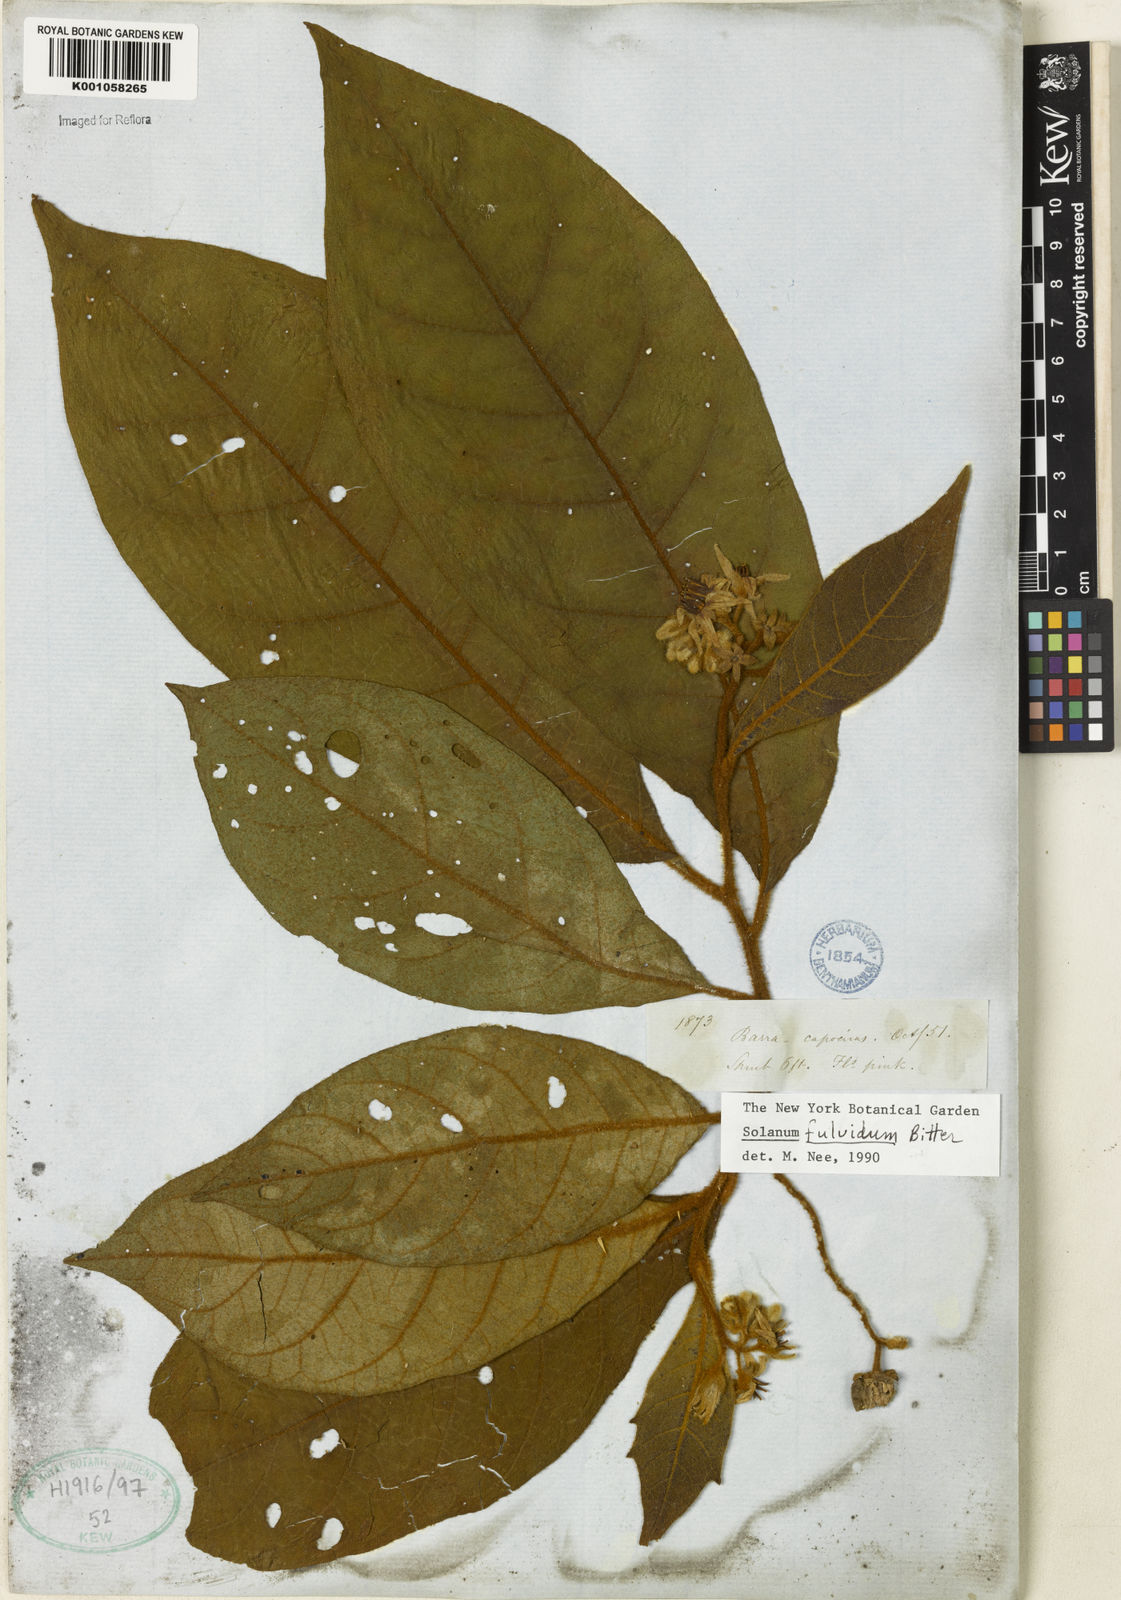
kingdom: Plantae
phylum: Tracheophyta
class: Magnoliopsida
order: Solanales
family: Solanaceae
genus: Solanum
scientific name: Solanum fulvidum
